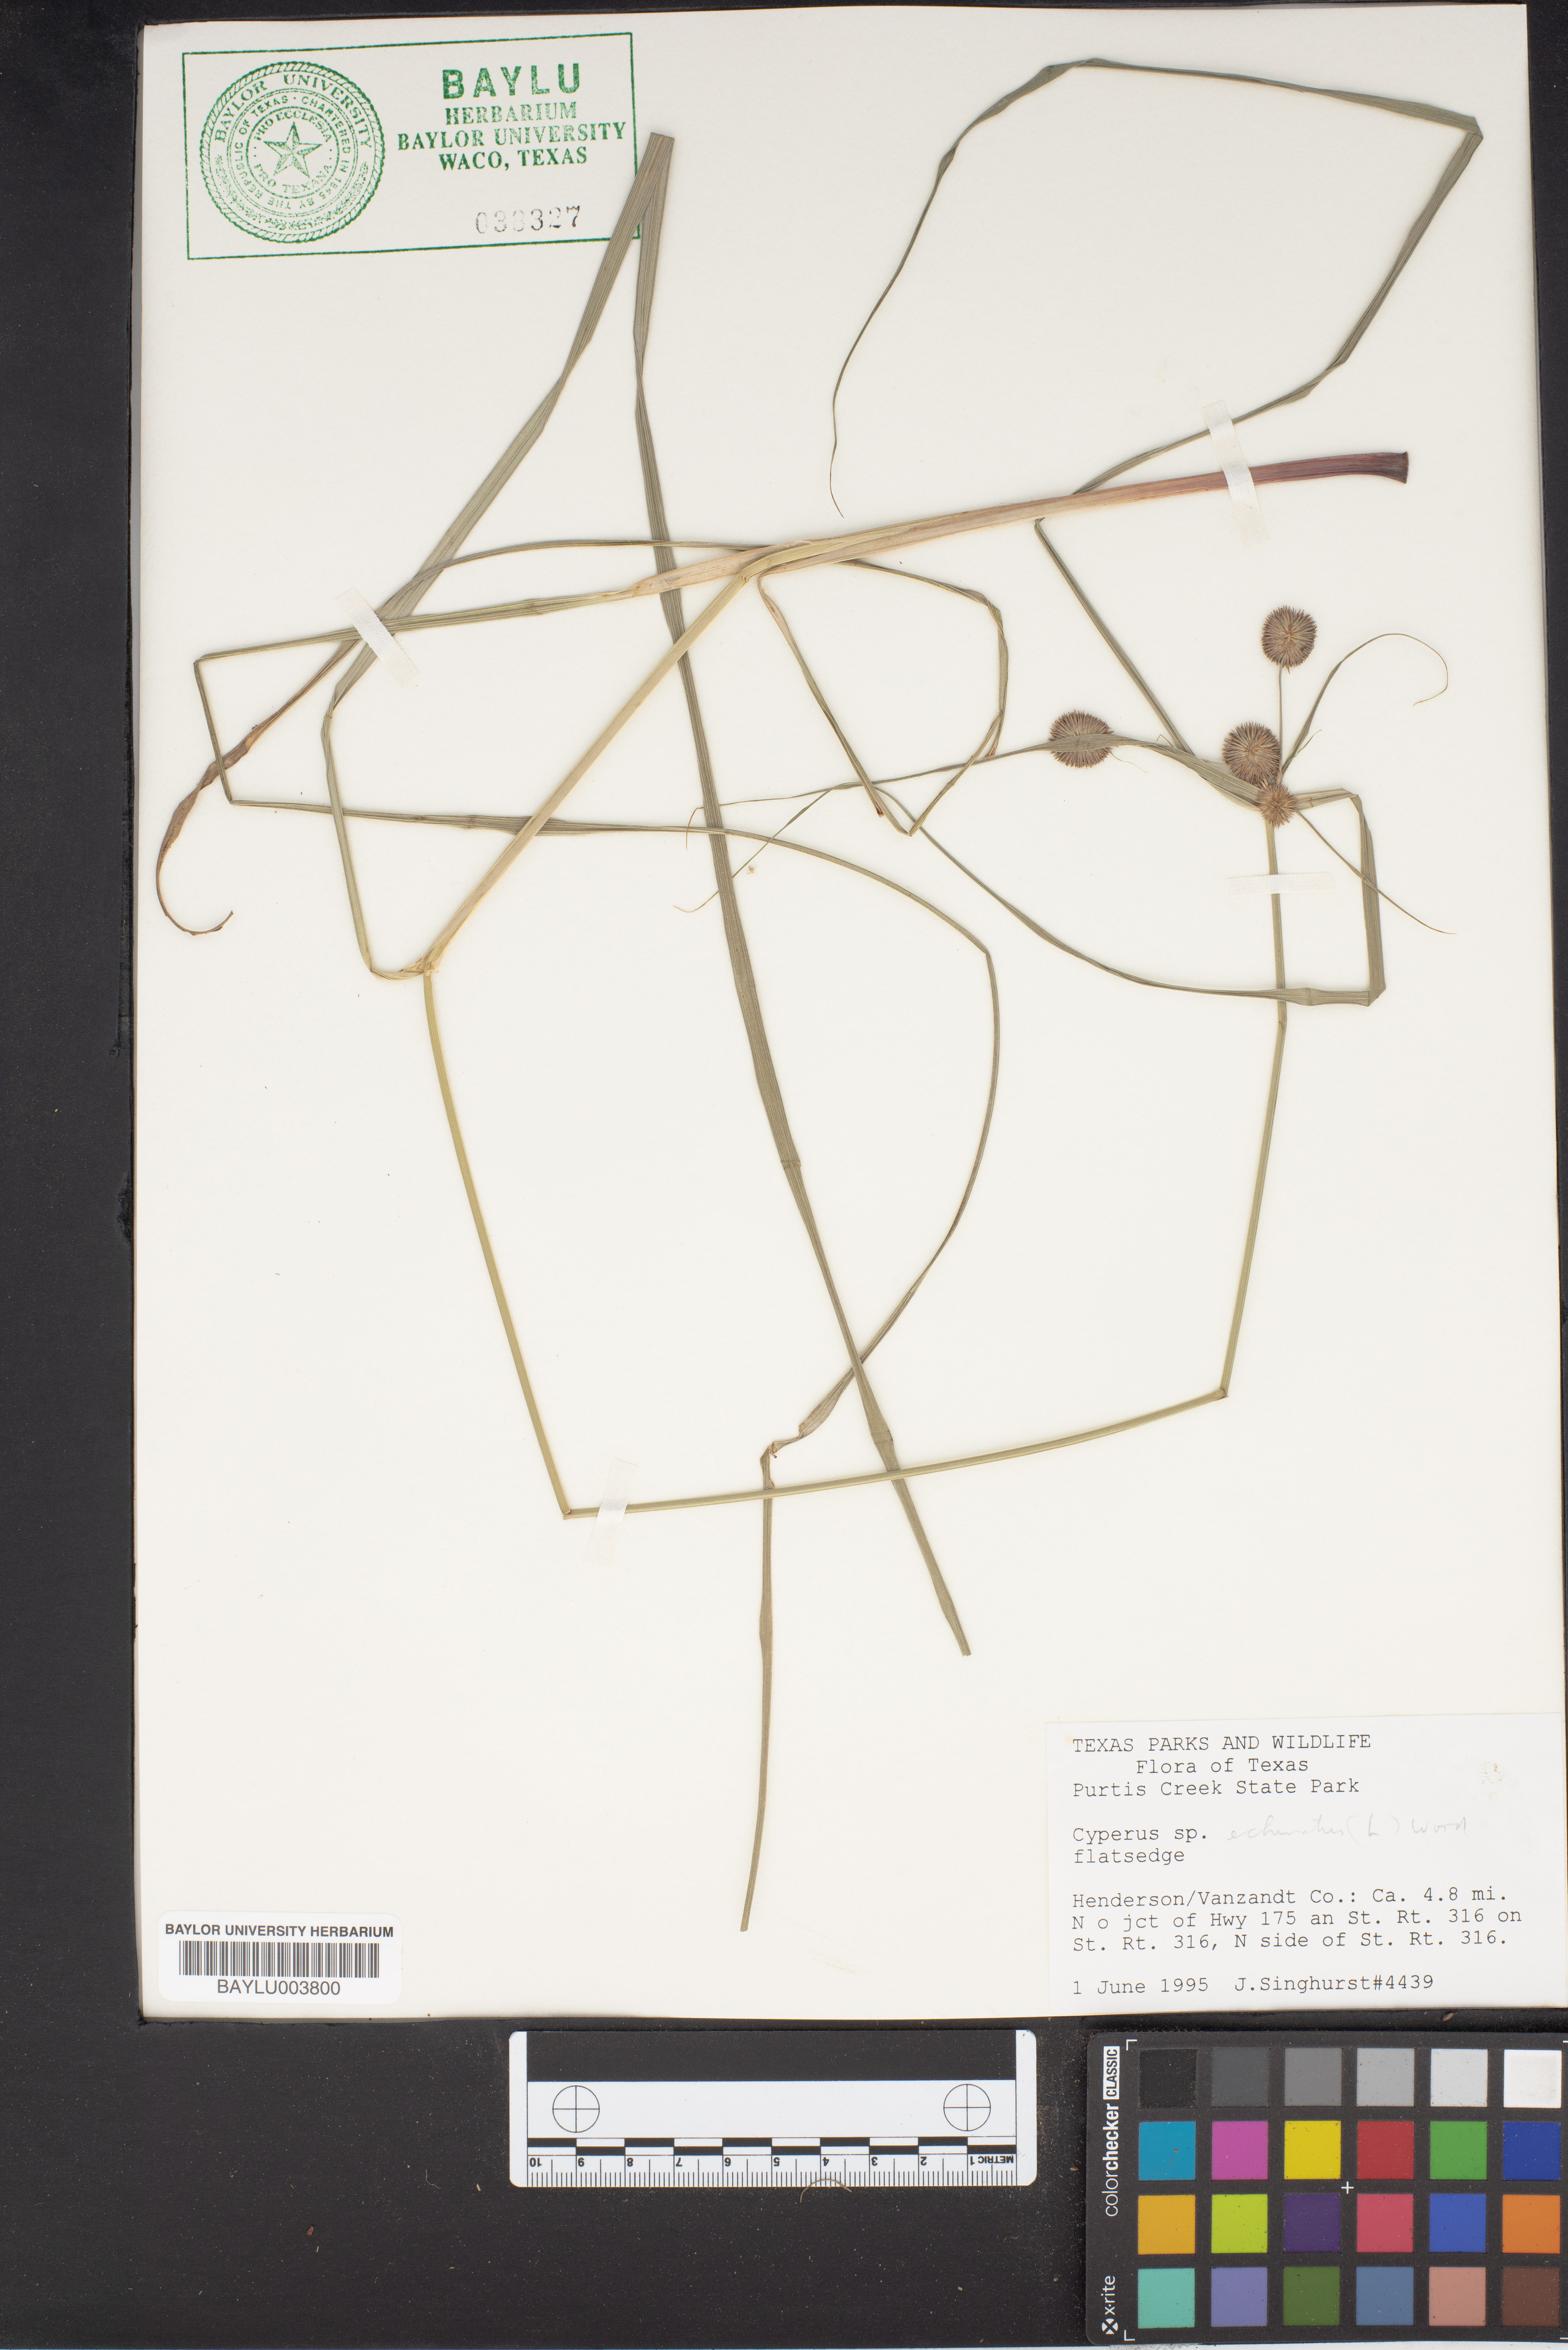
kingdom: Plantae
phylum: Tracheophyta
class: Liliopsida
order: Poales
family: Cyperaceae
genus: Cyperus
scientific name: Cyperus
